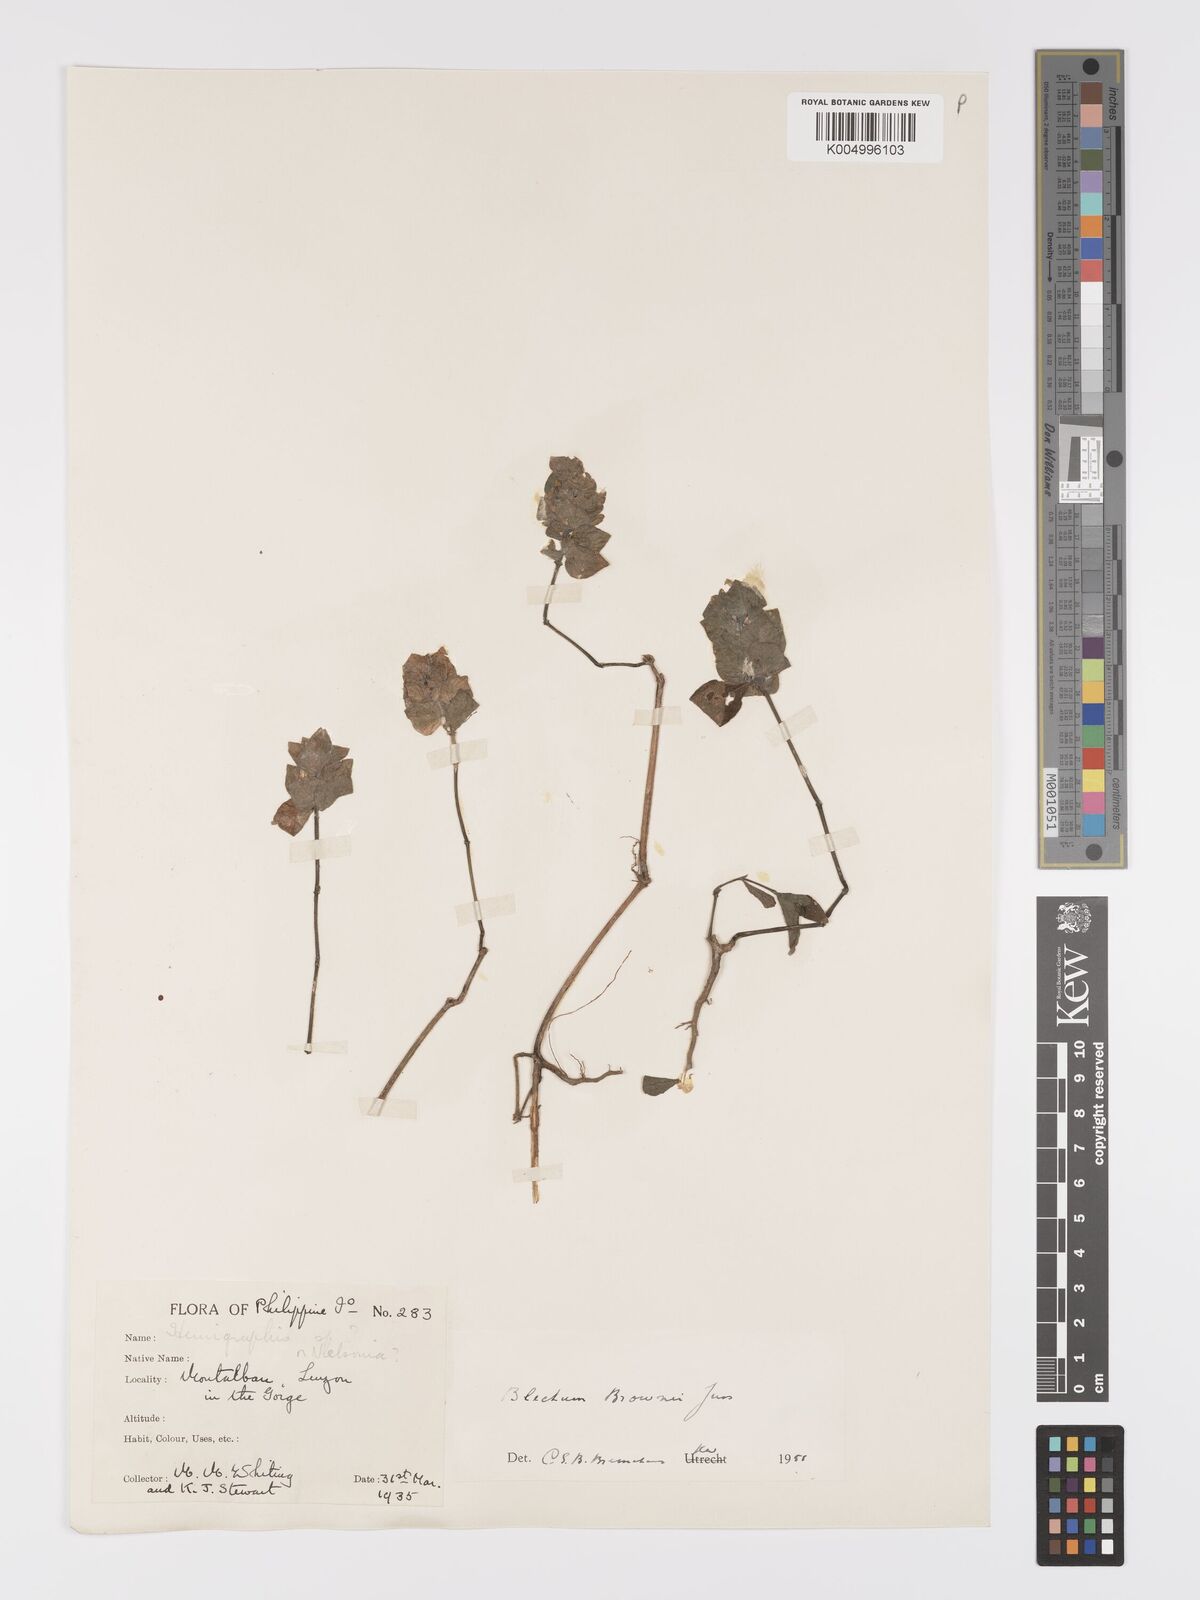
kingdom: Plantae
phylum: Tracheophyta
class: Magnoliopsida
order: Lamiales
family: Acanthaceae
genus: Ruellia
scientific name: Ruellia blechum
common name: Browne's blechum
